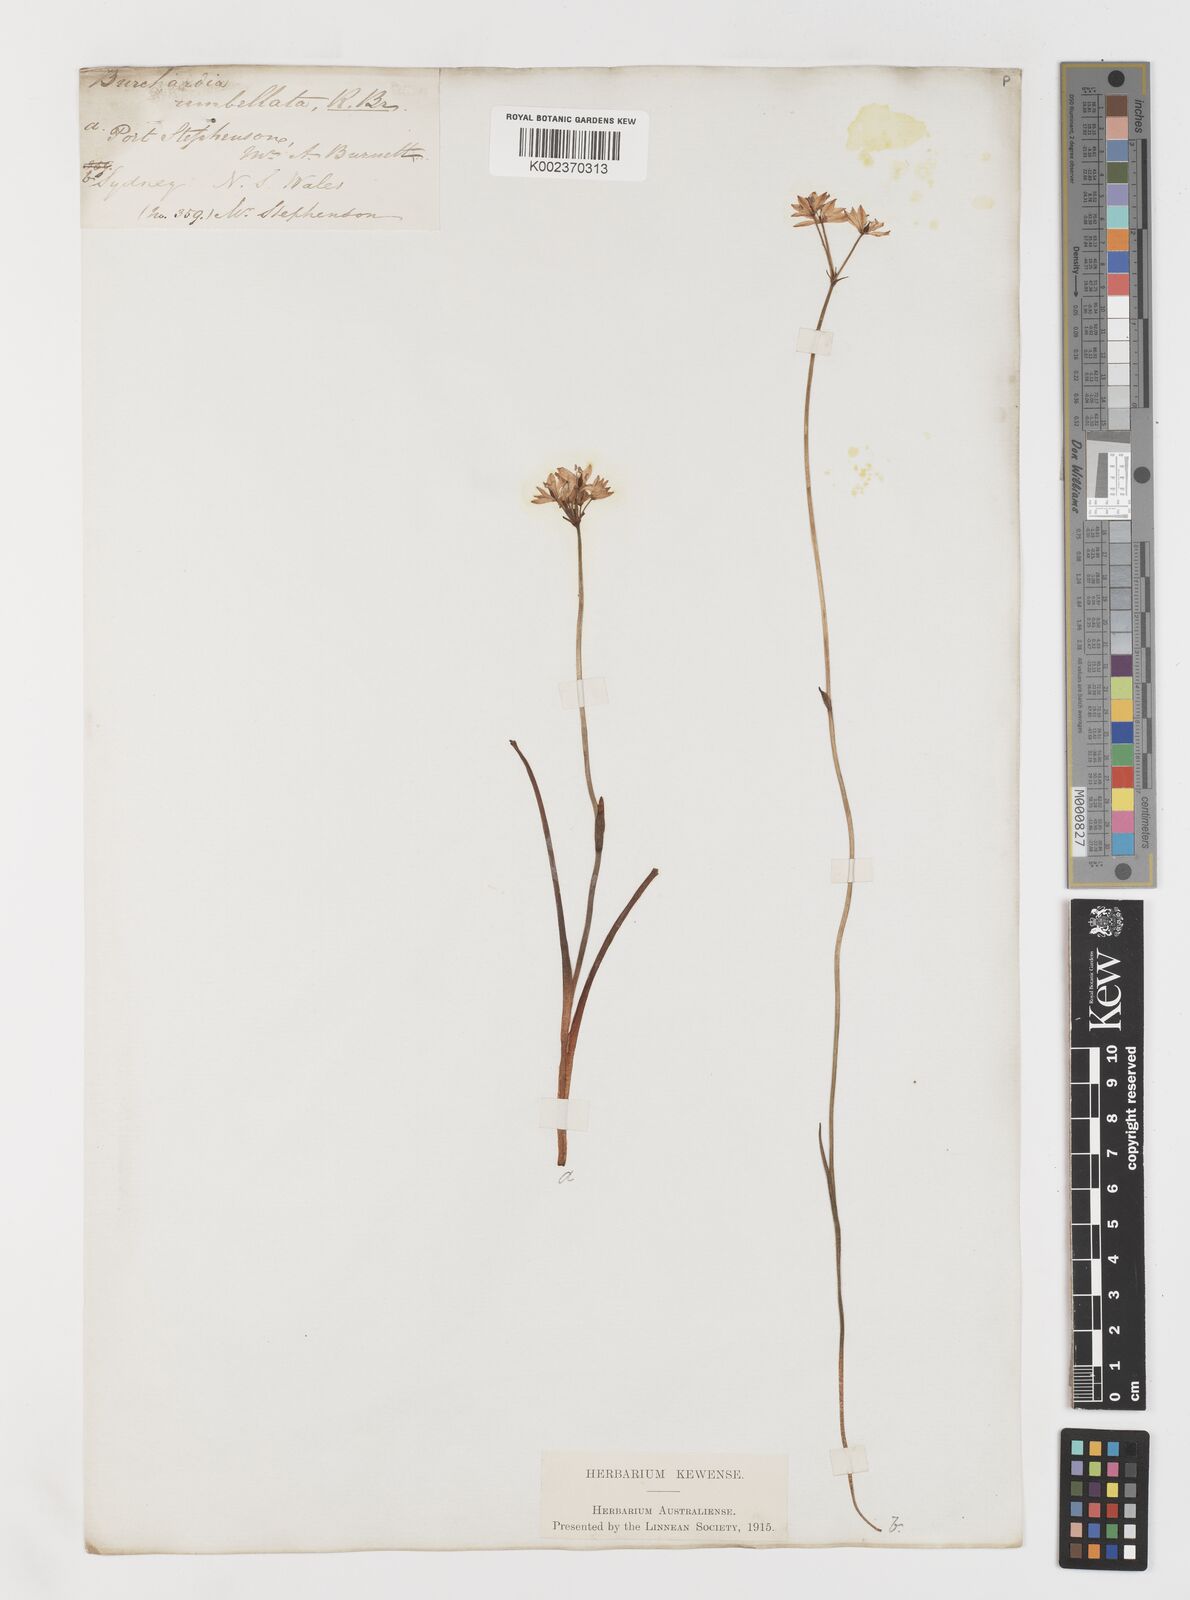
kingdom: Plantae
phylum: Tracheophyta
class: Liliopsida
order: Liliales
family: Colchicaceae
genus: Burchardia
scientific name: Burchardia umbellata
